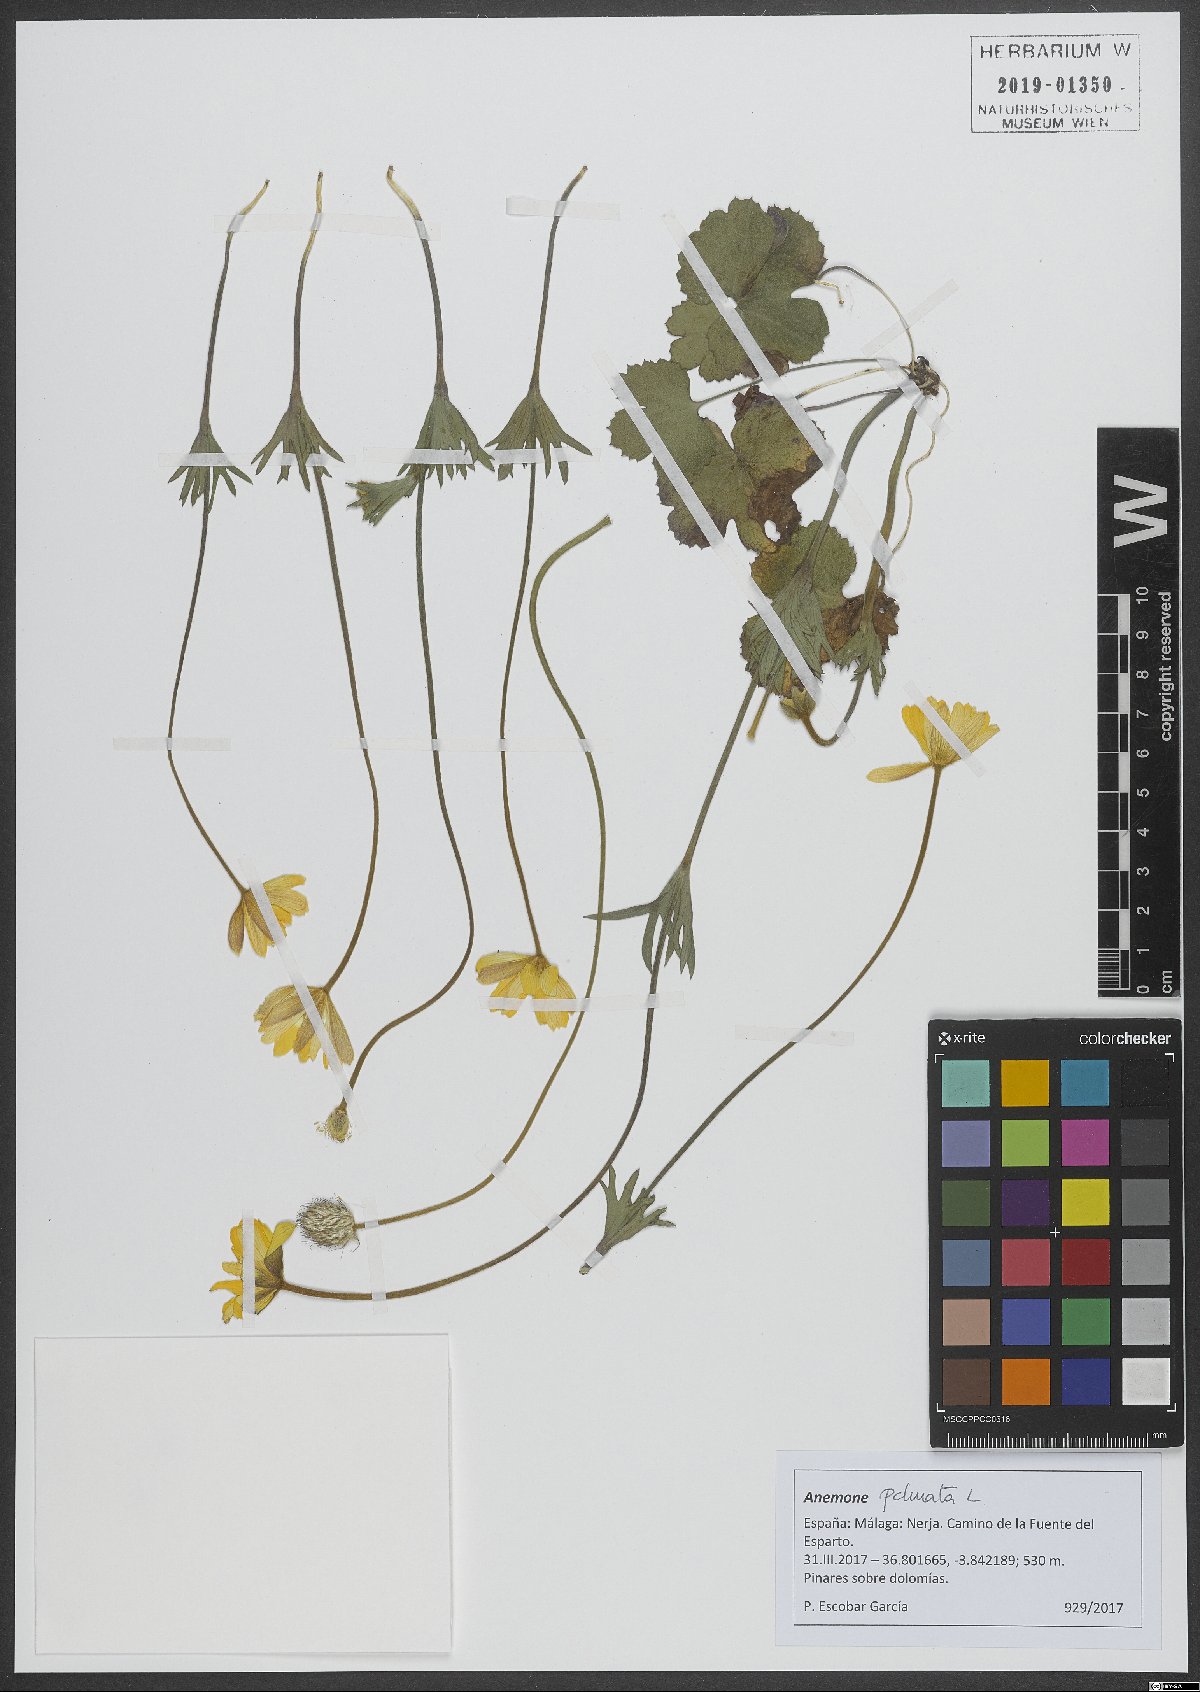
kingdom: Plantae
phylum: Tracheophyta
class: Magnoliopsida
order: Ranunculales
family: Ranunculaceae
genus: Anemone
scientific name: Anemone palmata
